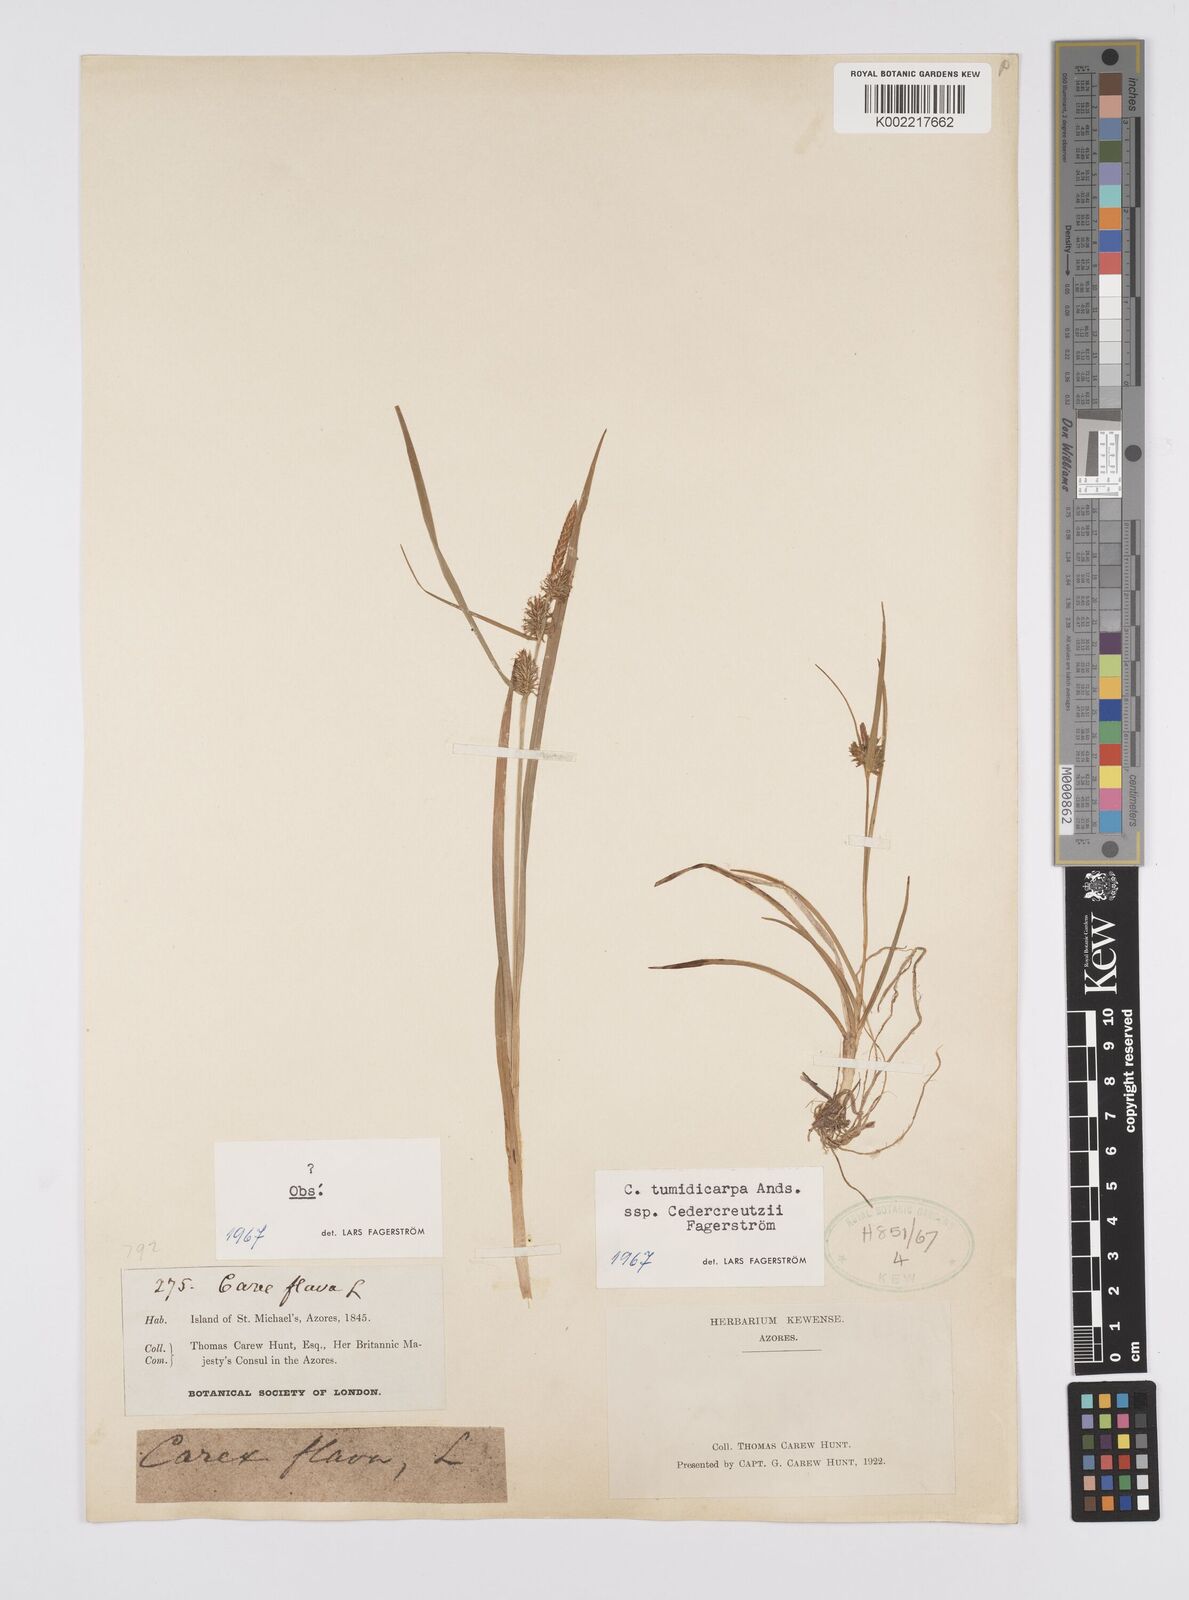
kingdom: Plantae
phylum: Tracheophyta
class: Liliopsida
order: Poales
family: Cyperaceae
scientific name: Cyperaceae
